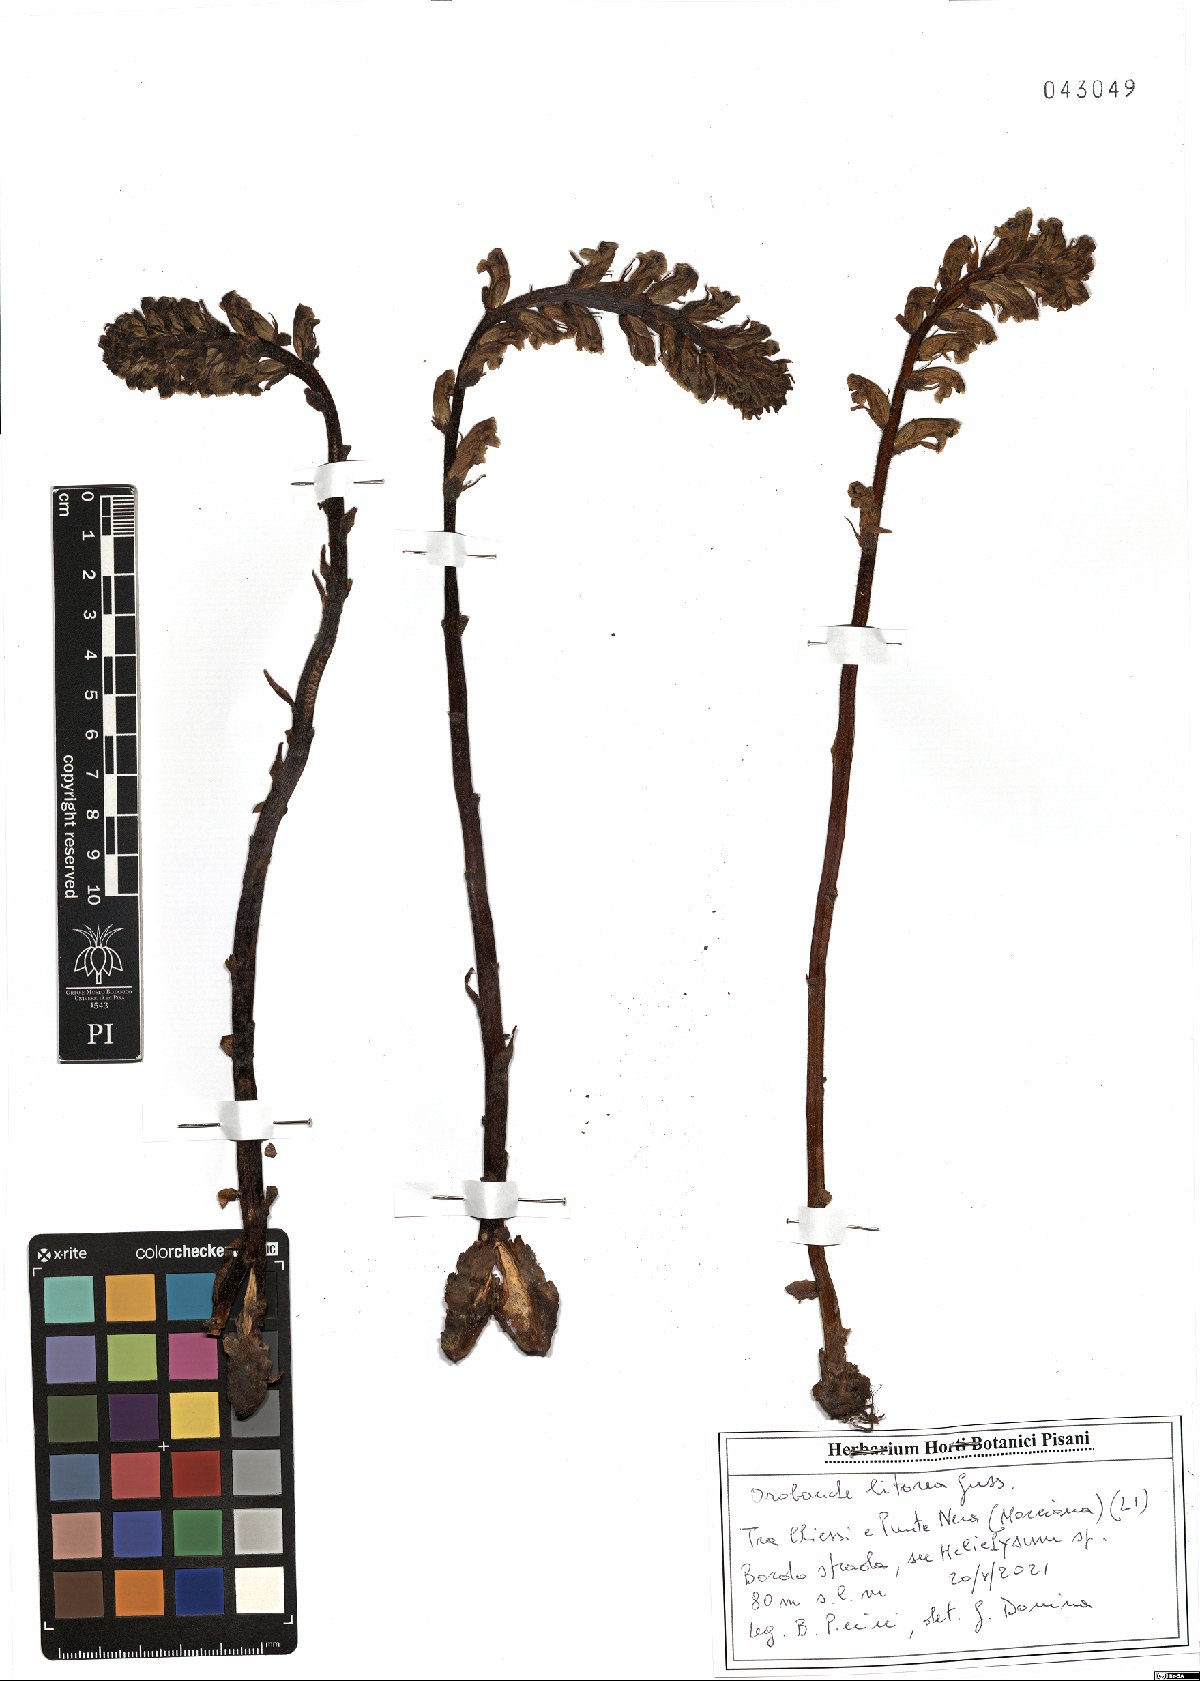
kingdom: Plantae
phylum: Tracheophyta
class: Magnoliopsida
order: Lamiales
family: Orobanchaceae
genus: Orobanche
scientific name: Orobanche litorea
